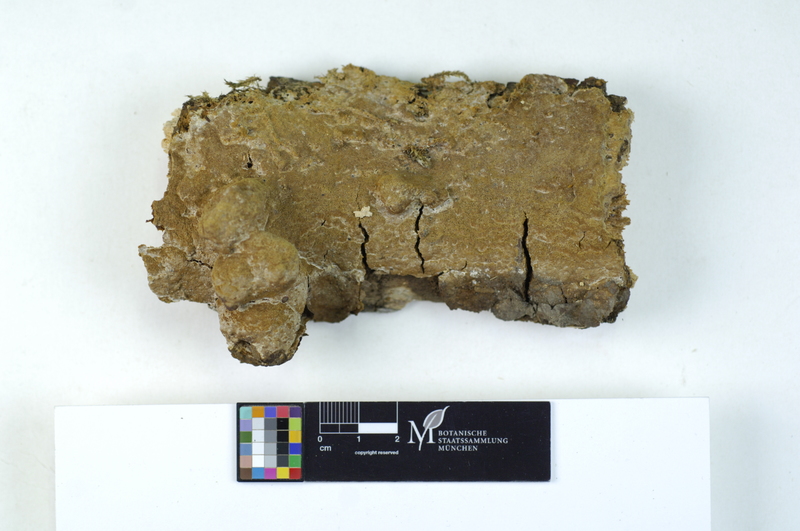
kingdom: Plantae
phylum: Tracheophyta
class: Magnoliopsida
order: Fagales
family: Fagaceae
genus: Quercus
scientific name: Quercus
